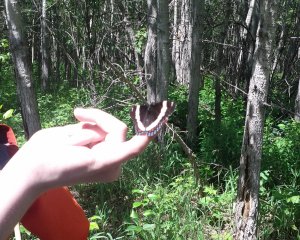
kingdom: Animalia
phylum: Arthropoda
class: Insecta
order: Lepidoptera
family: Nymphalidae
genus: Limenitis
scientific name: Limenitis arthemis
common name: Red-spotted Admiral
